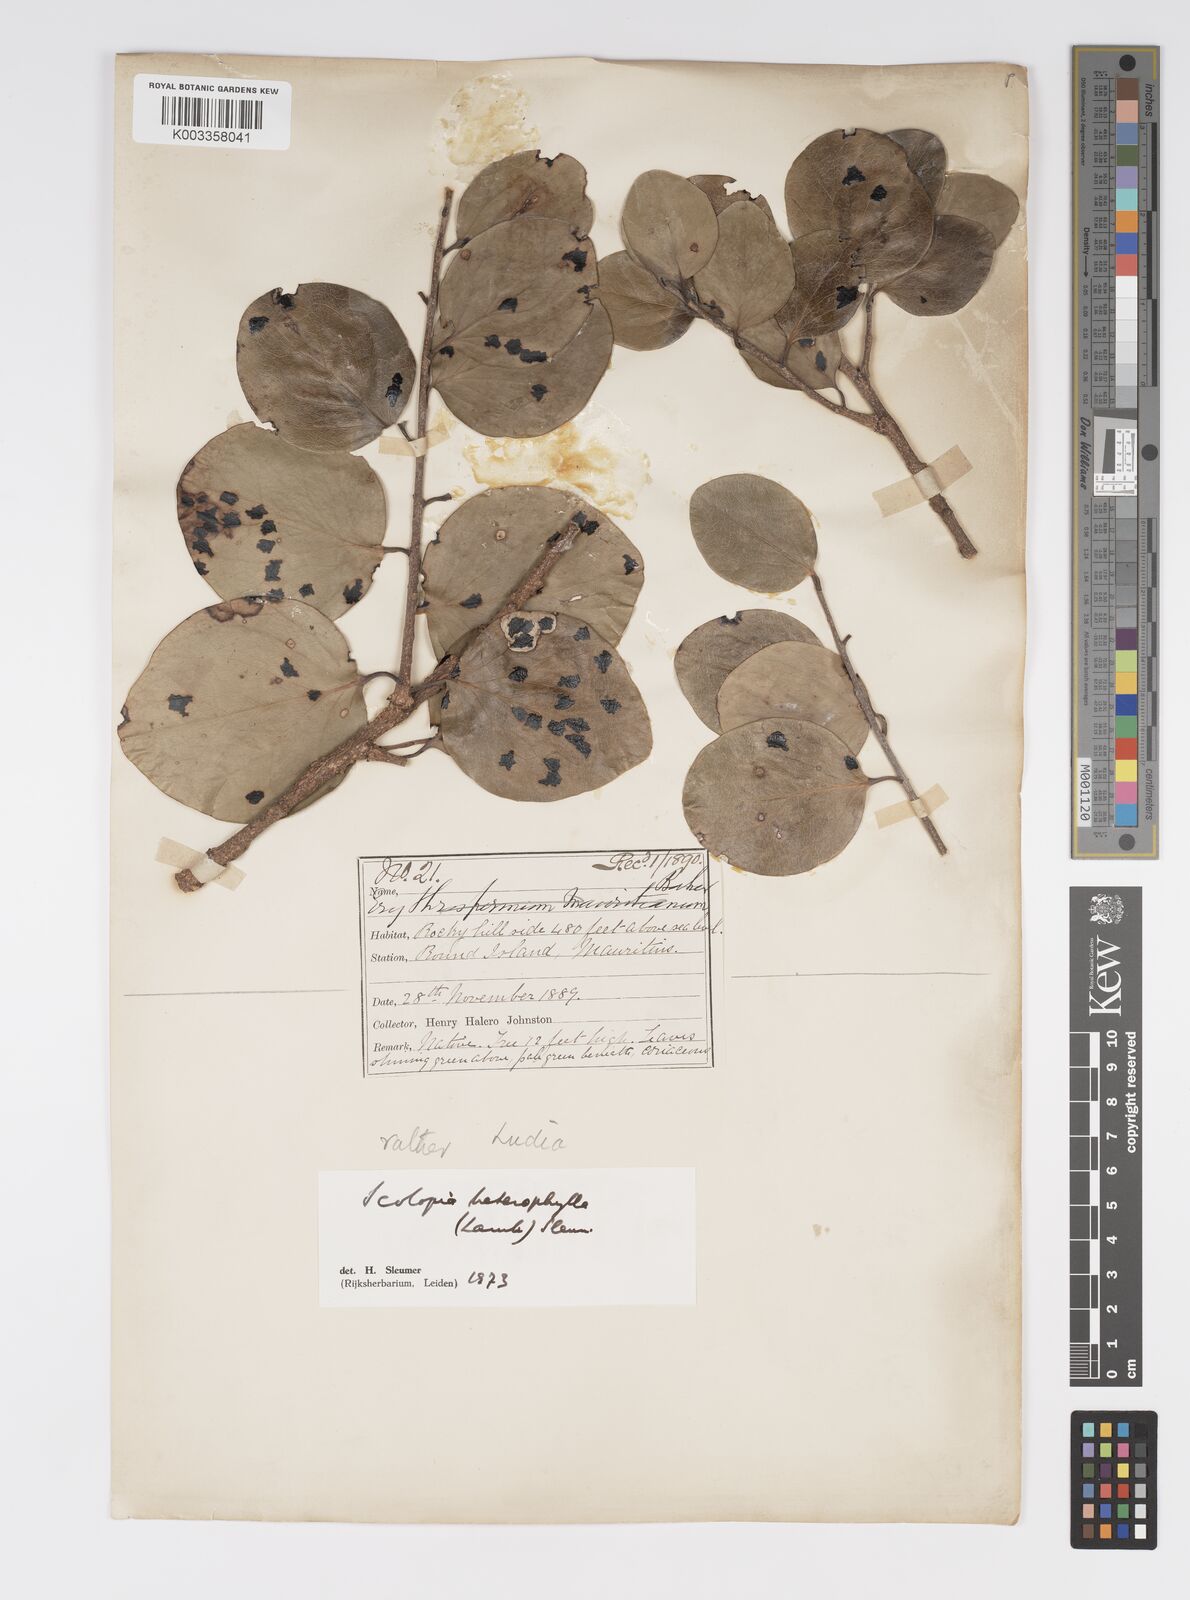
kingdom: Plantae
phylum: Tracheophyta
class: Magnoliopsida
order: Malpighiales
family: Salicaceae
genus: Scolopia
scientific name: Scolopia heterophylla
